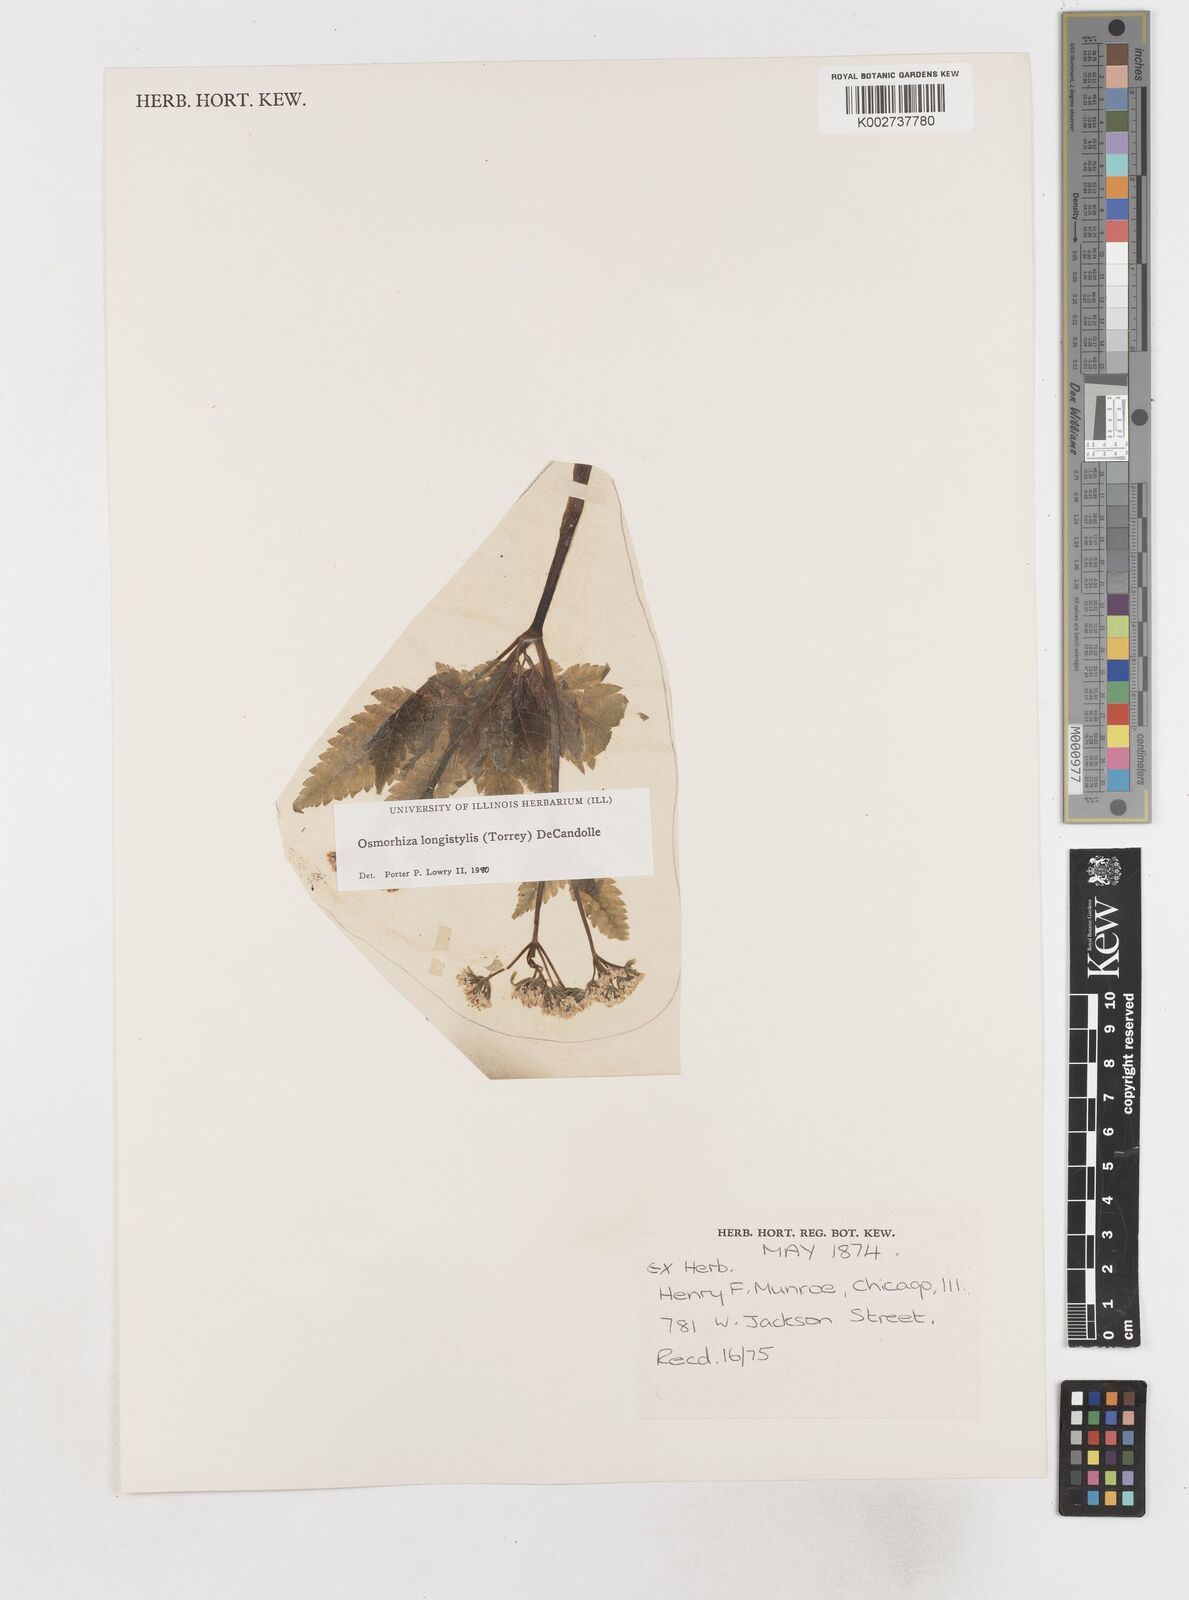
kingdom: Plantae
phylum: Tracheophyta
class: Magnoliopsida
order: Apiales
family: Apiaceae
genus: Osmorhiza
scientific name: Osmorhiza longistylis
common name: Smooth sweet cicely
